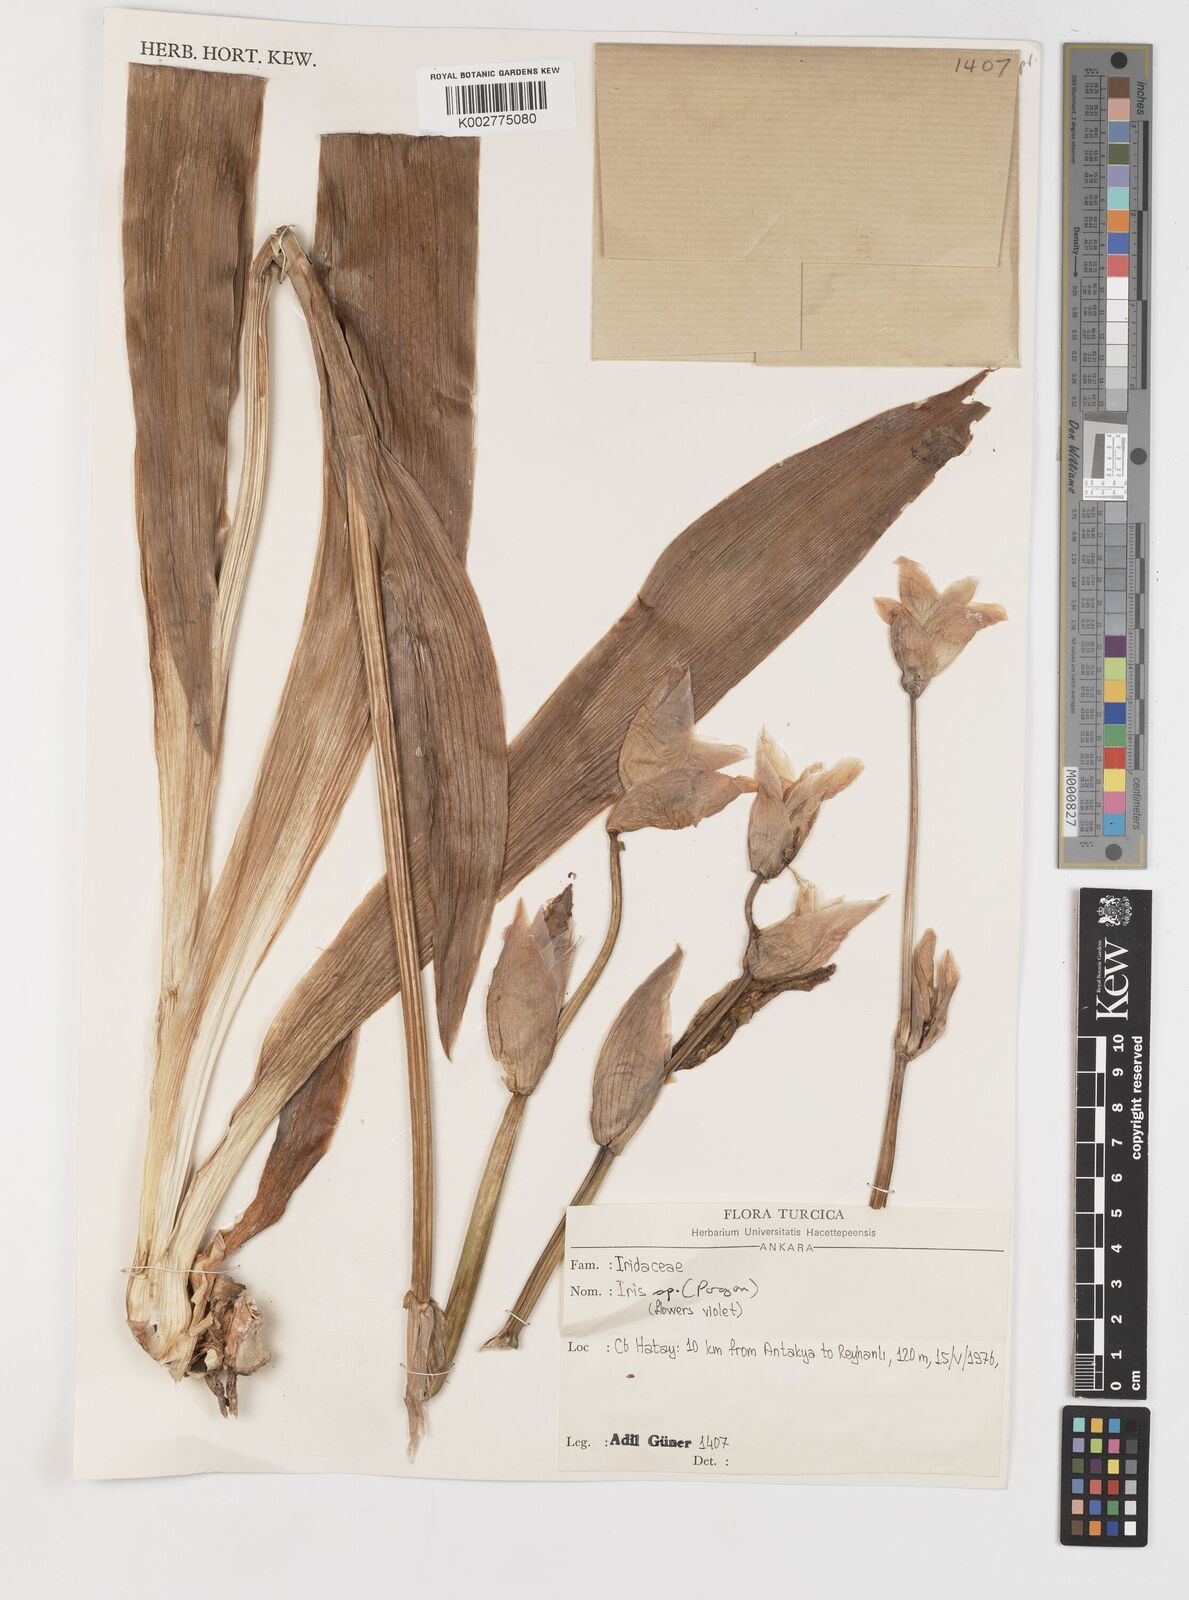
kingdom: Plantae
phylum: Tracheophyta
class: Liliopsida
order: Asparagales
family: Iridaceae
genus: Iris
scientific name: Iris germanica
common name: German iris
